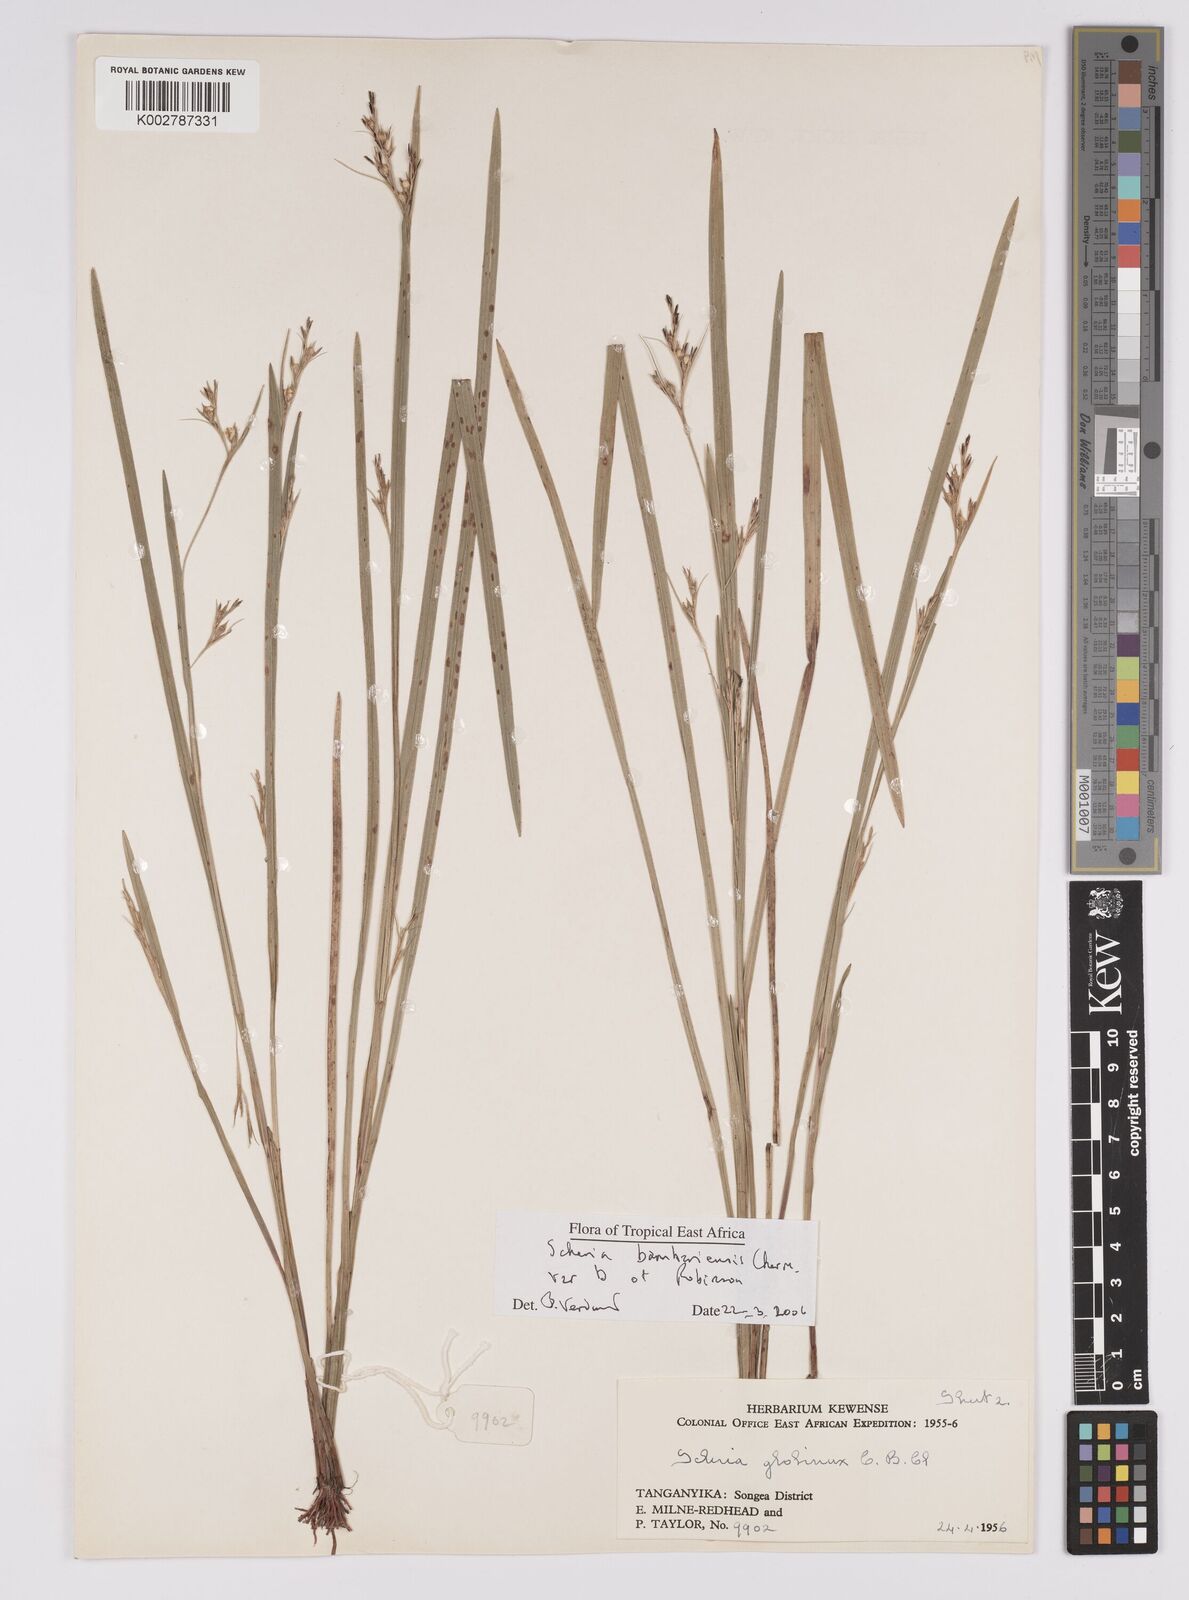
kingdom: Plantae
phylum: Tracheophyta
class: Liliopsida
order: Poales
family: Cyperaceae
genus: Scleria
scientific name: Scleria bambariensis
